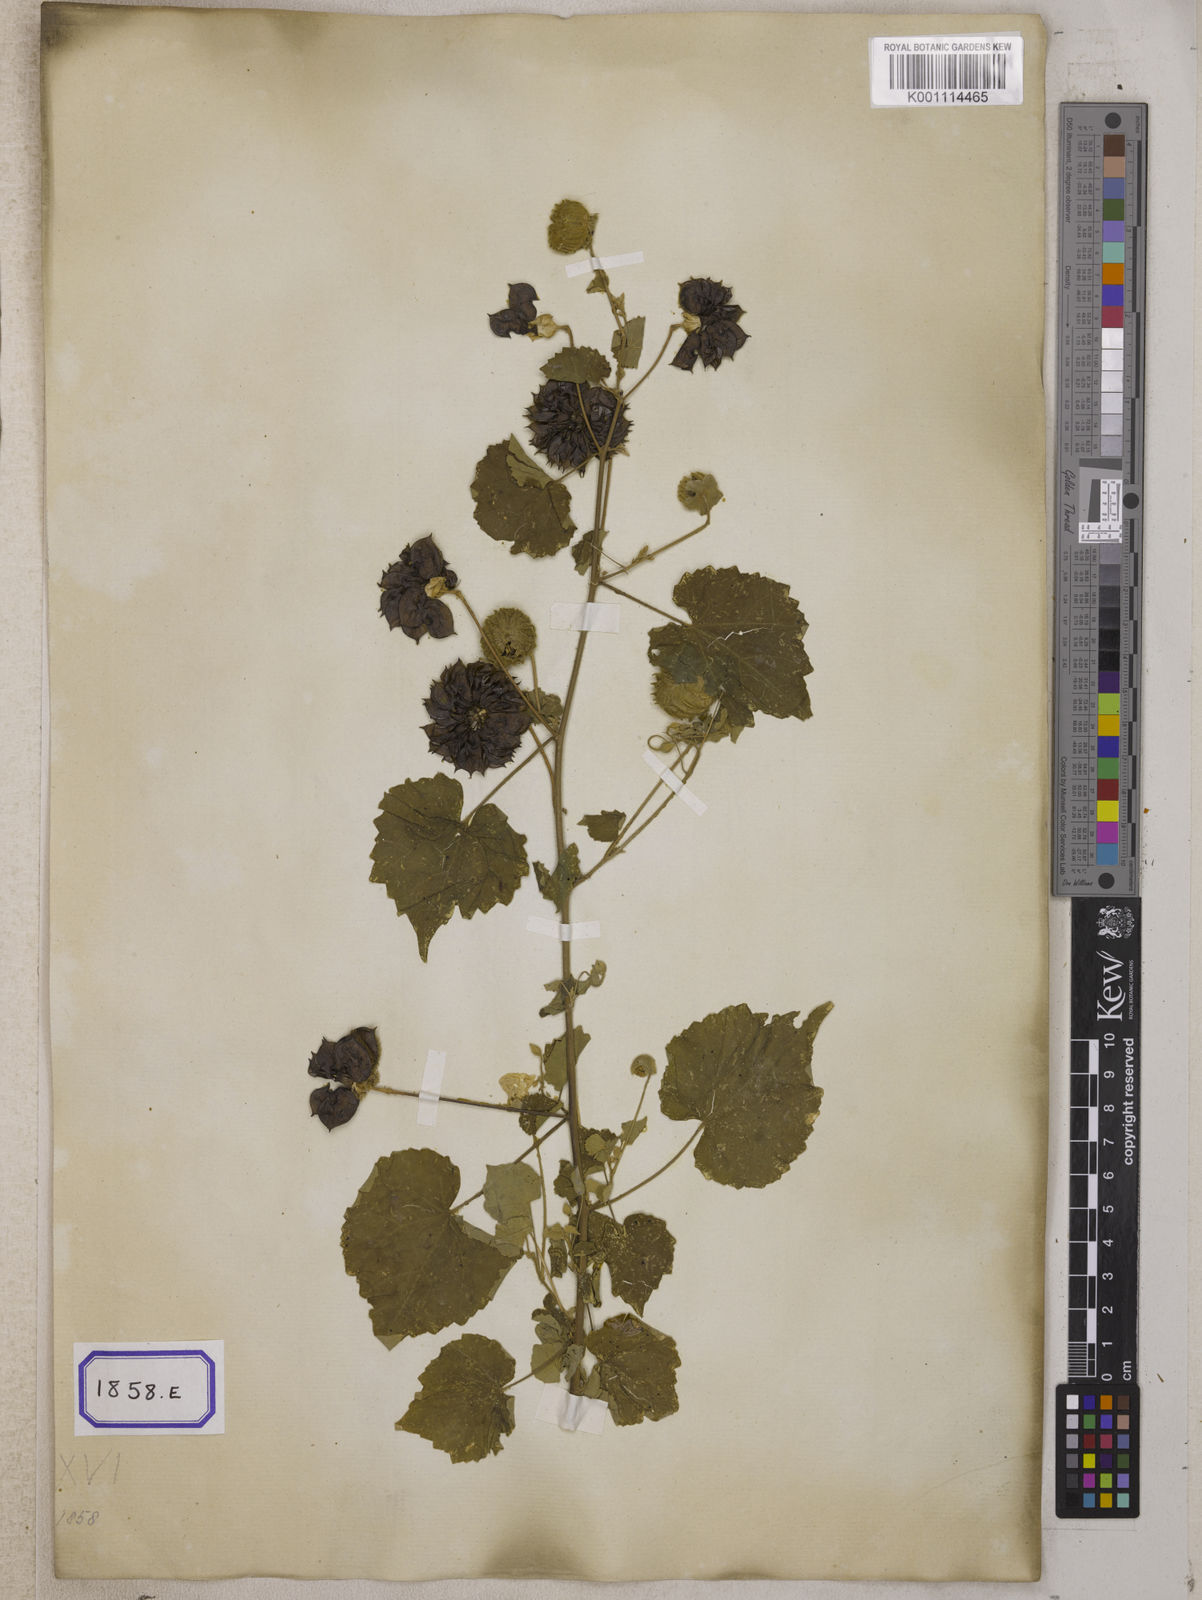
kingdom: Plantae
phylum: Tracheophyta
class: Magnoliopsida
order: Malvales
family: Malvaceae
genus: Abutilon
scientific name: Abutilon indicum
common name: Indian abutilon
